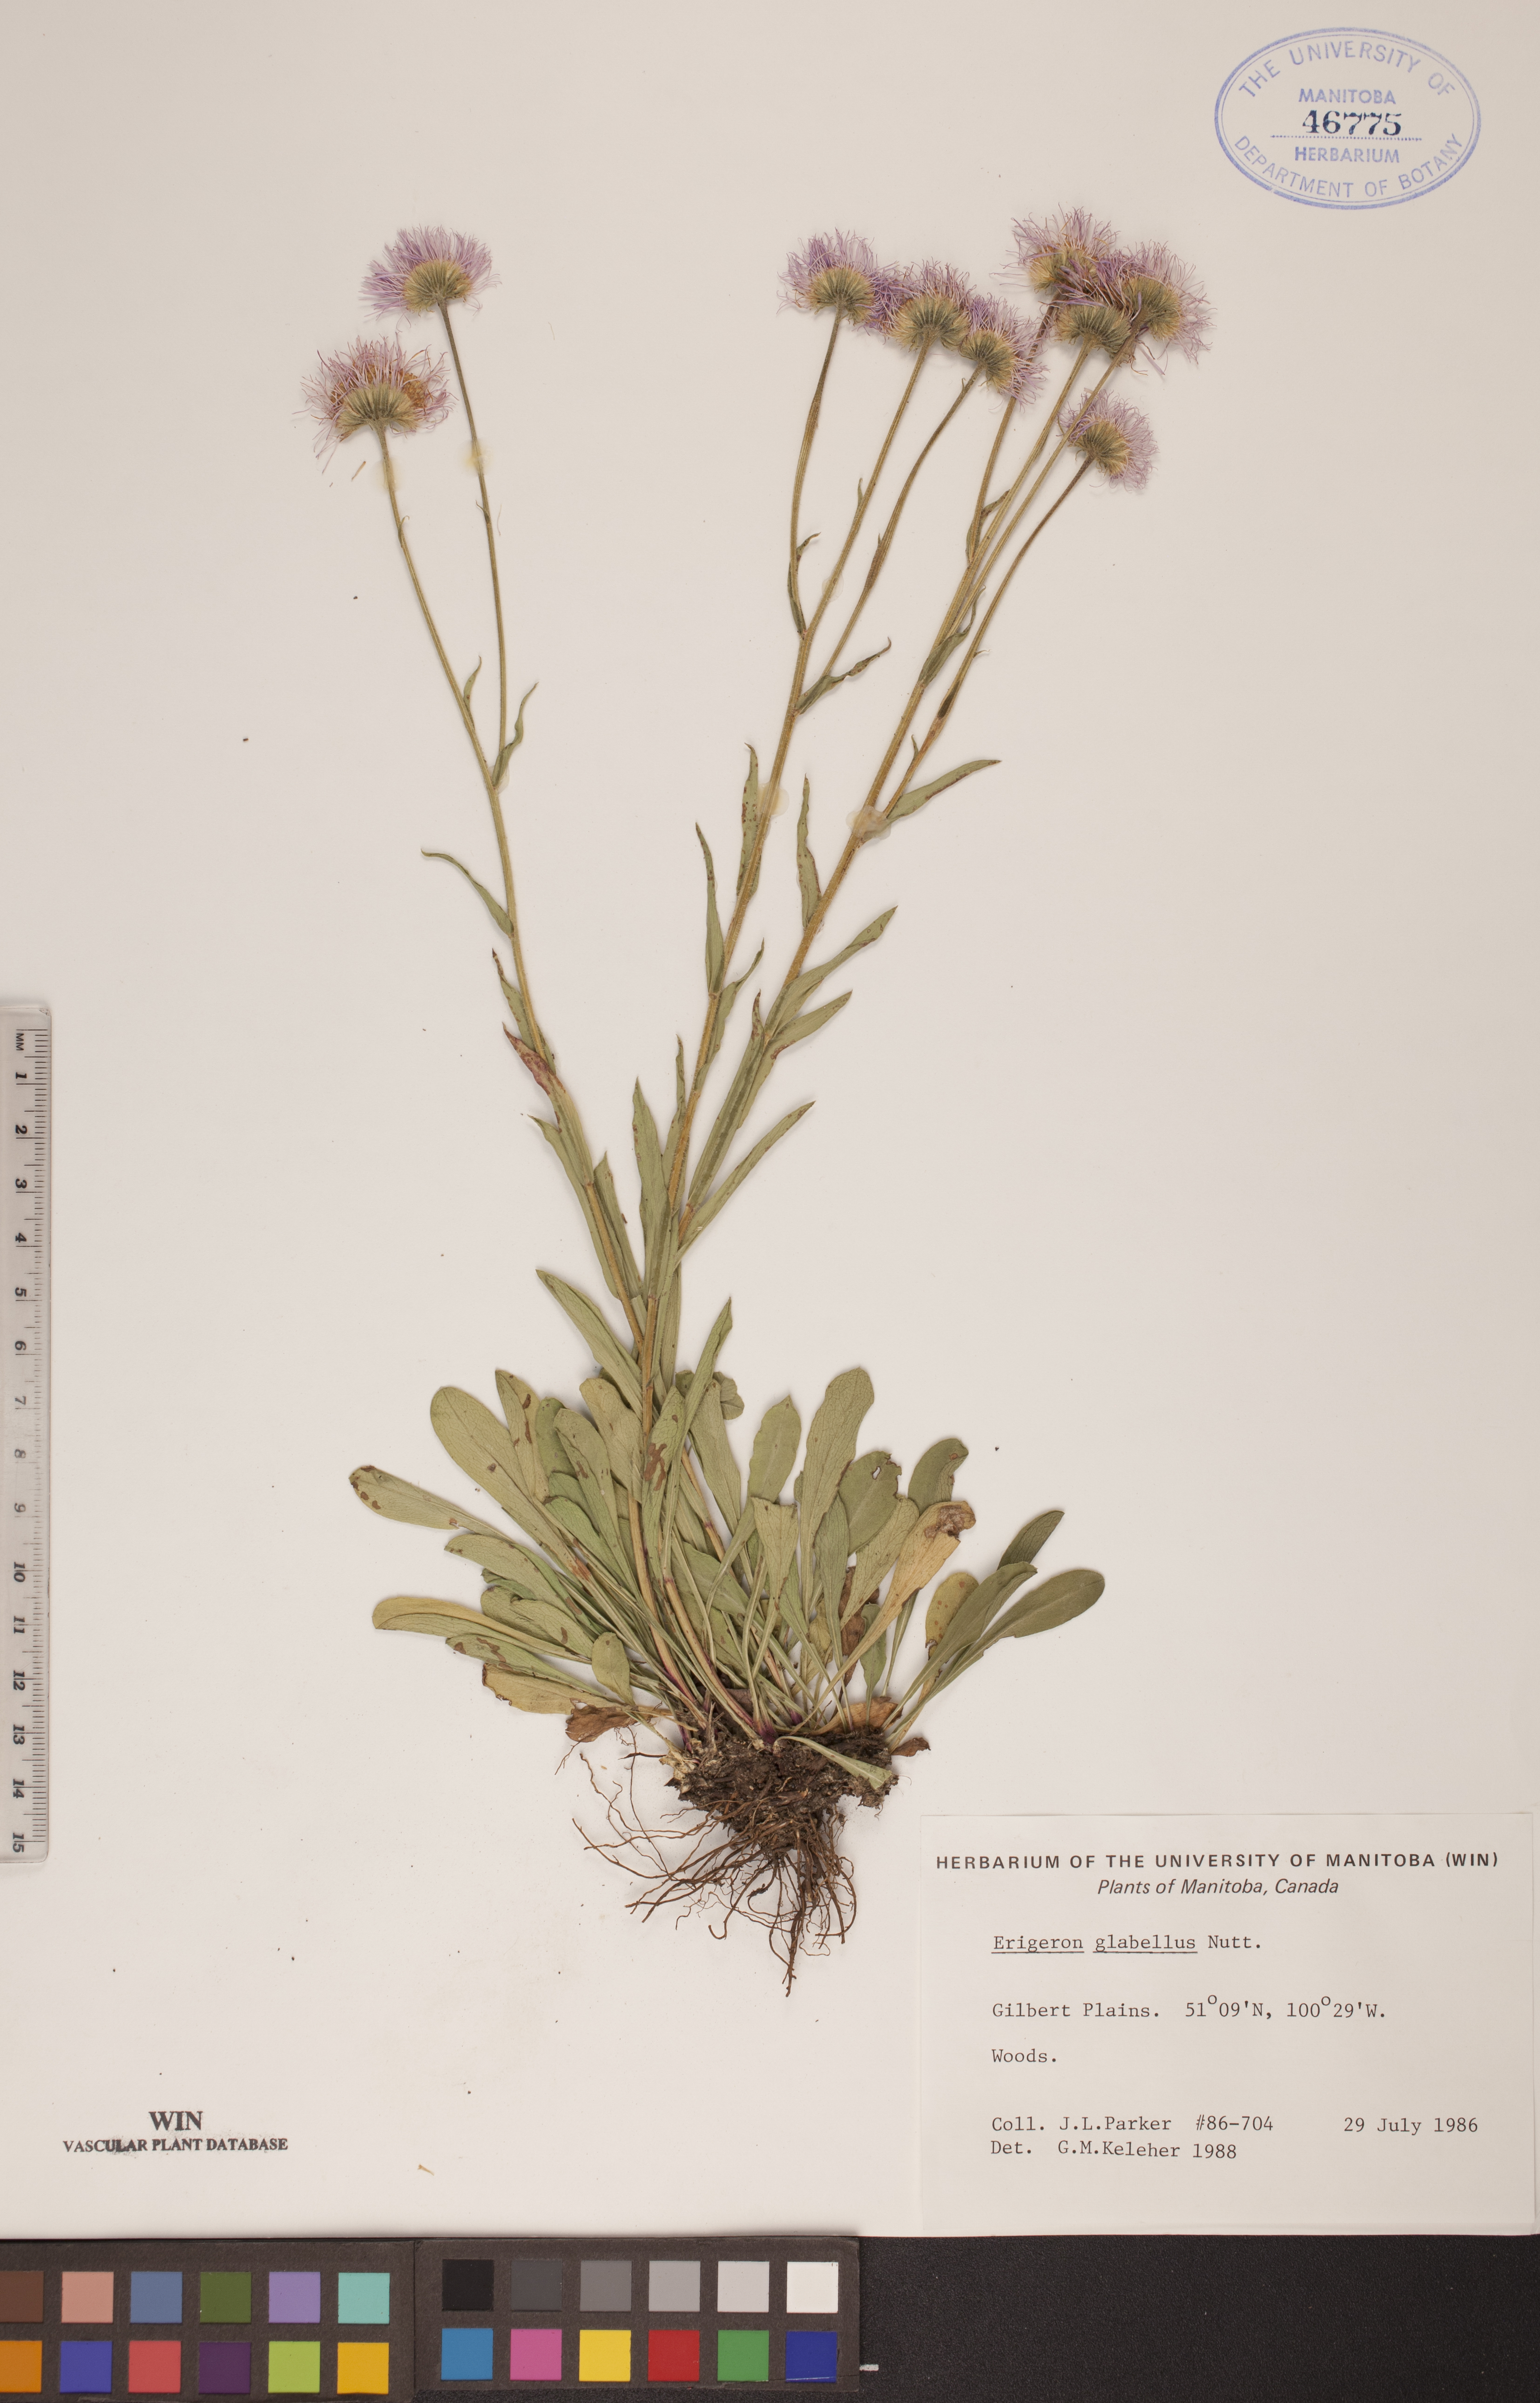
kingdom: Plantae
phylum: Tracheophyta
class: Magnoliopsida
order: Asterales
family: Asteraceae
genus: Erigeron
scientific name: Erigeron glabellus
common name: Smooth fleabane
